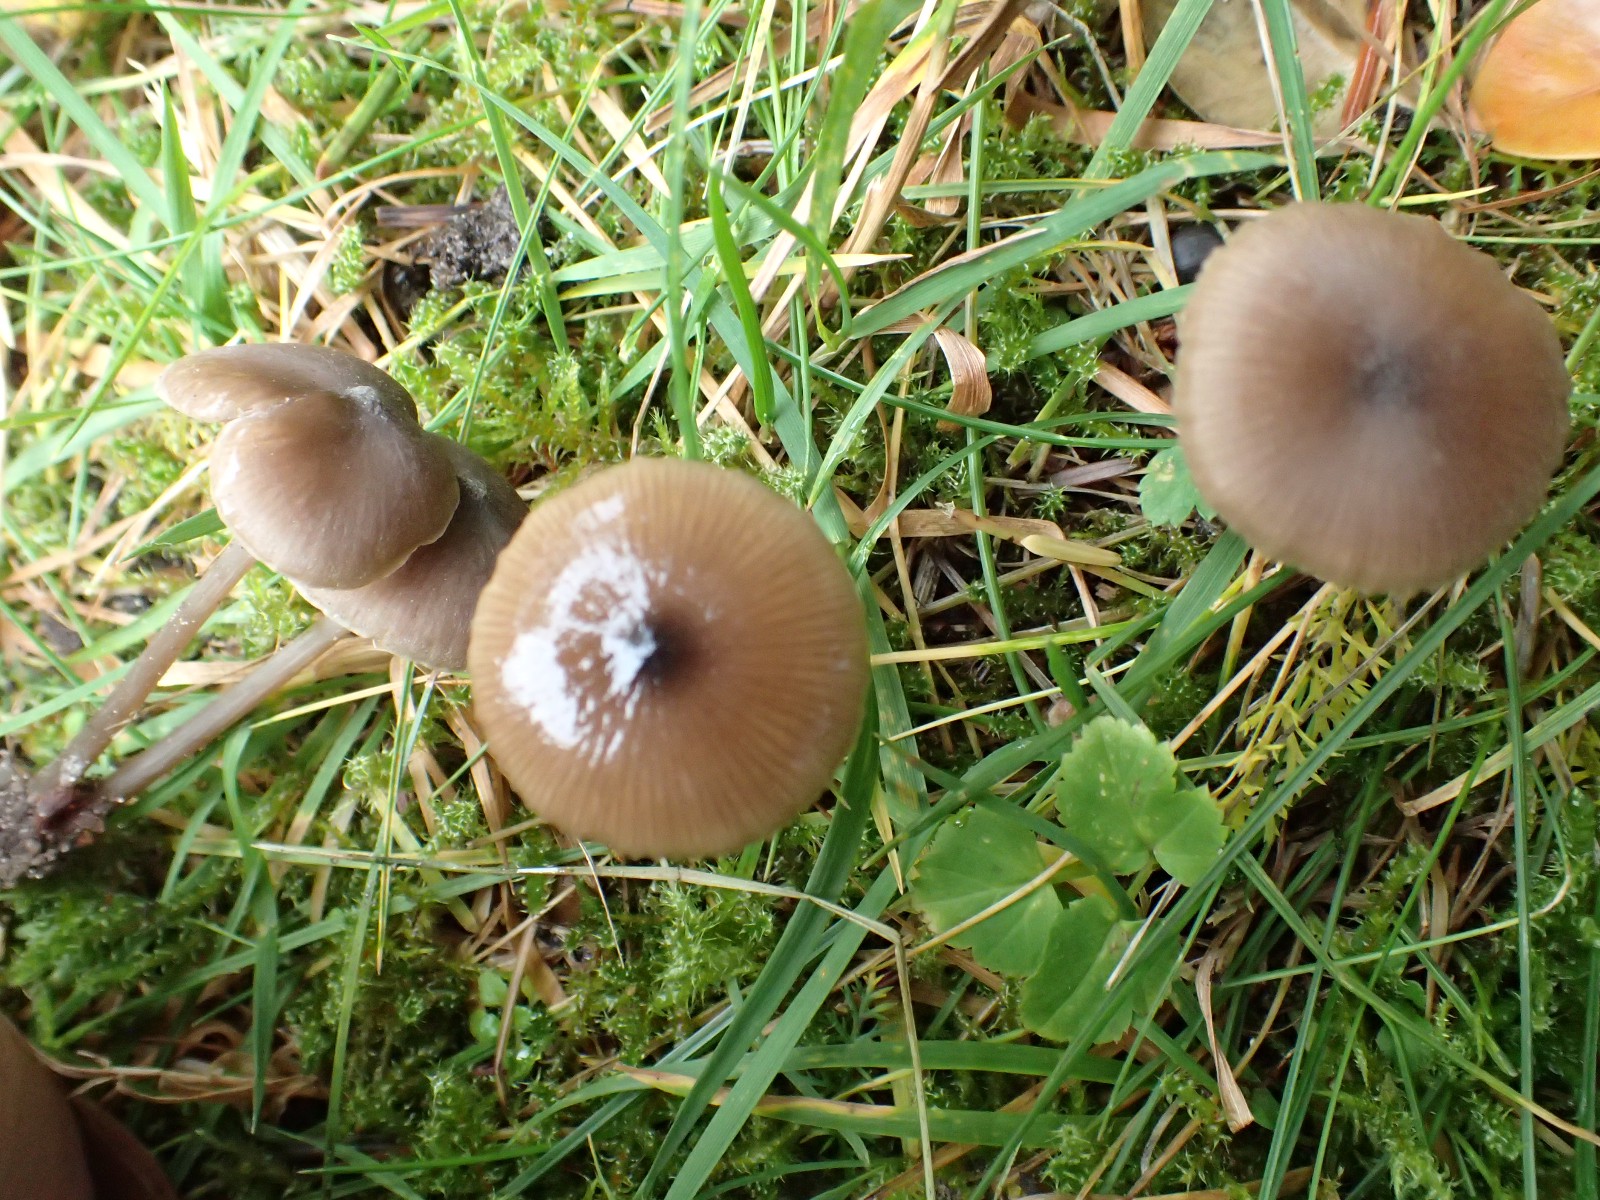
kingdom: Fungi
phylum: Basidiomycota
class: Agaricomycetes
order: Agaricales
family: Entolomataceae
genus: Entoloma
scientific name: Entoloma
